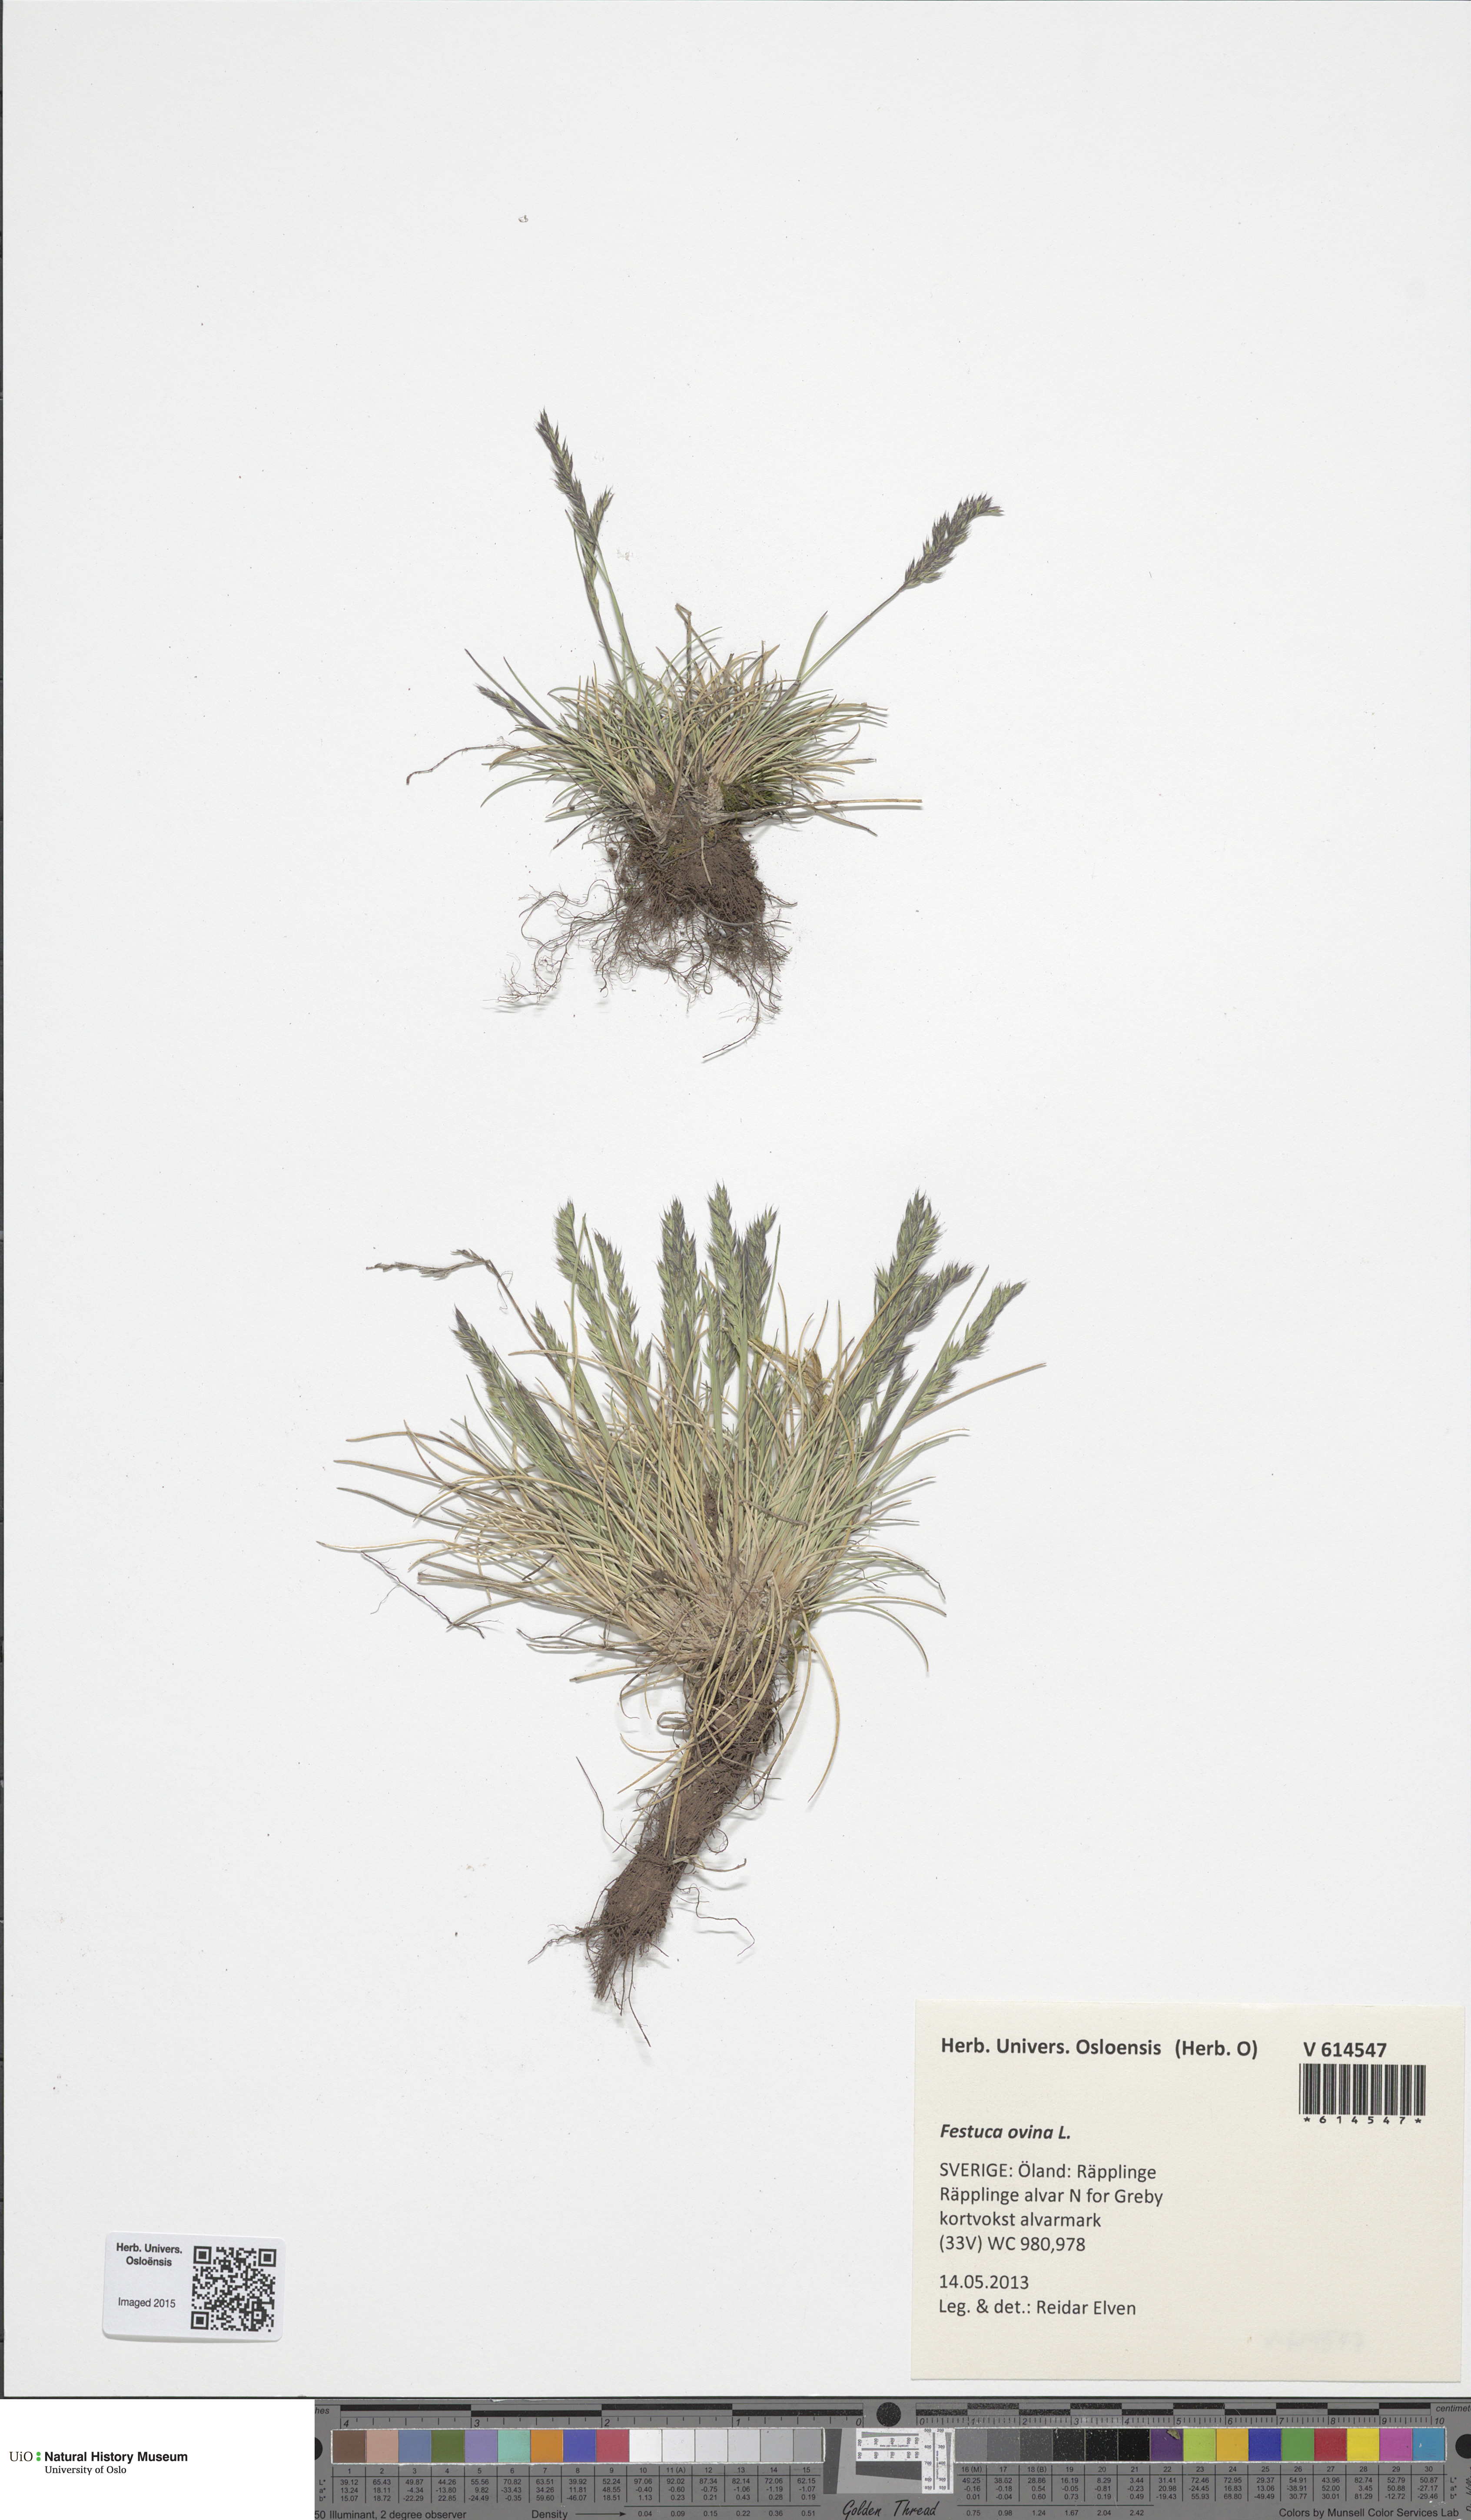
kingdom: Plantae
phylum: Tracheophyta
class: Liliopsida
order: Poales
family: Poaceae
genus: Festuca
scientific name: Festuca ovina
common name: Sheep fescue
